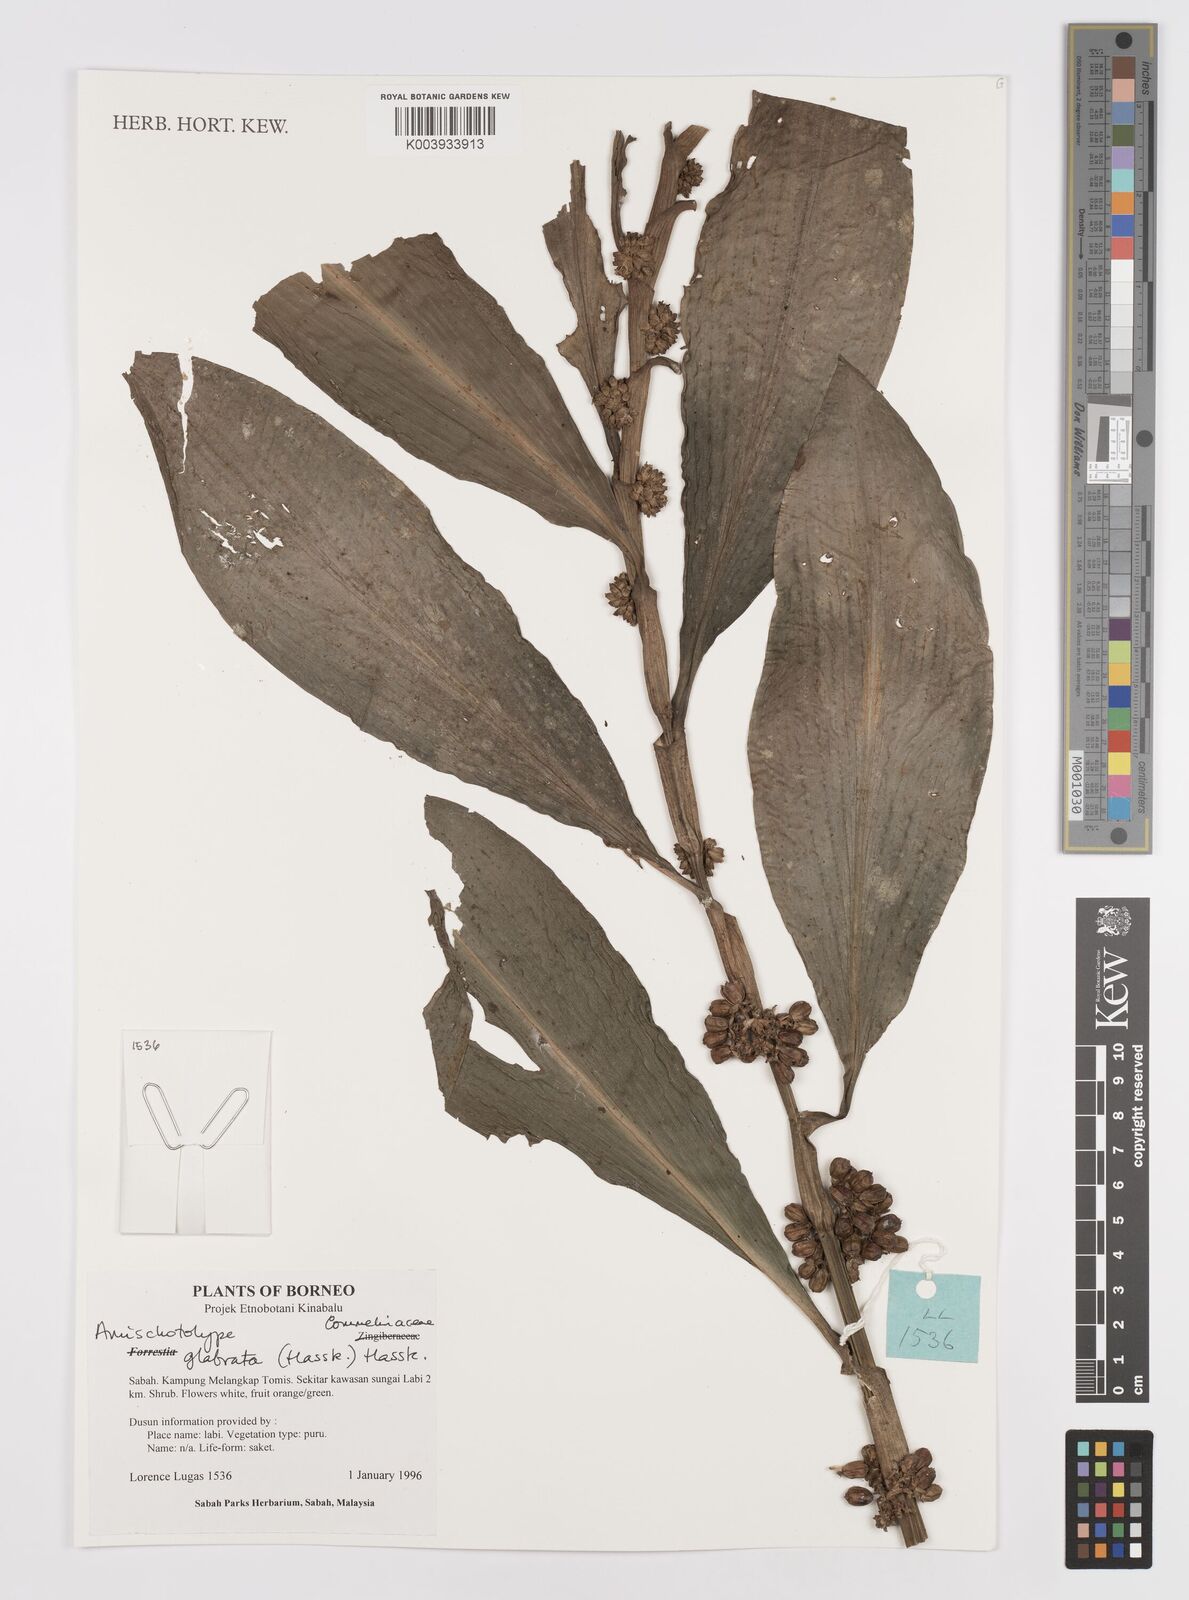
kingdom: Plantae
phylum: Tracheophyta
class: Liliopsida
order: Commelinales
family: Commelinaceae
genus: Amischotolype
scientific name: Amischotolype glabrata
